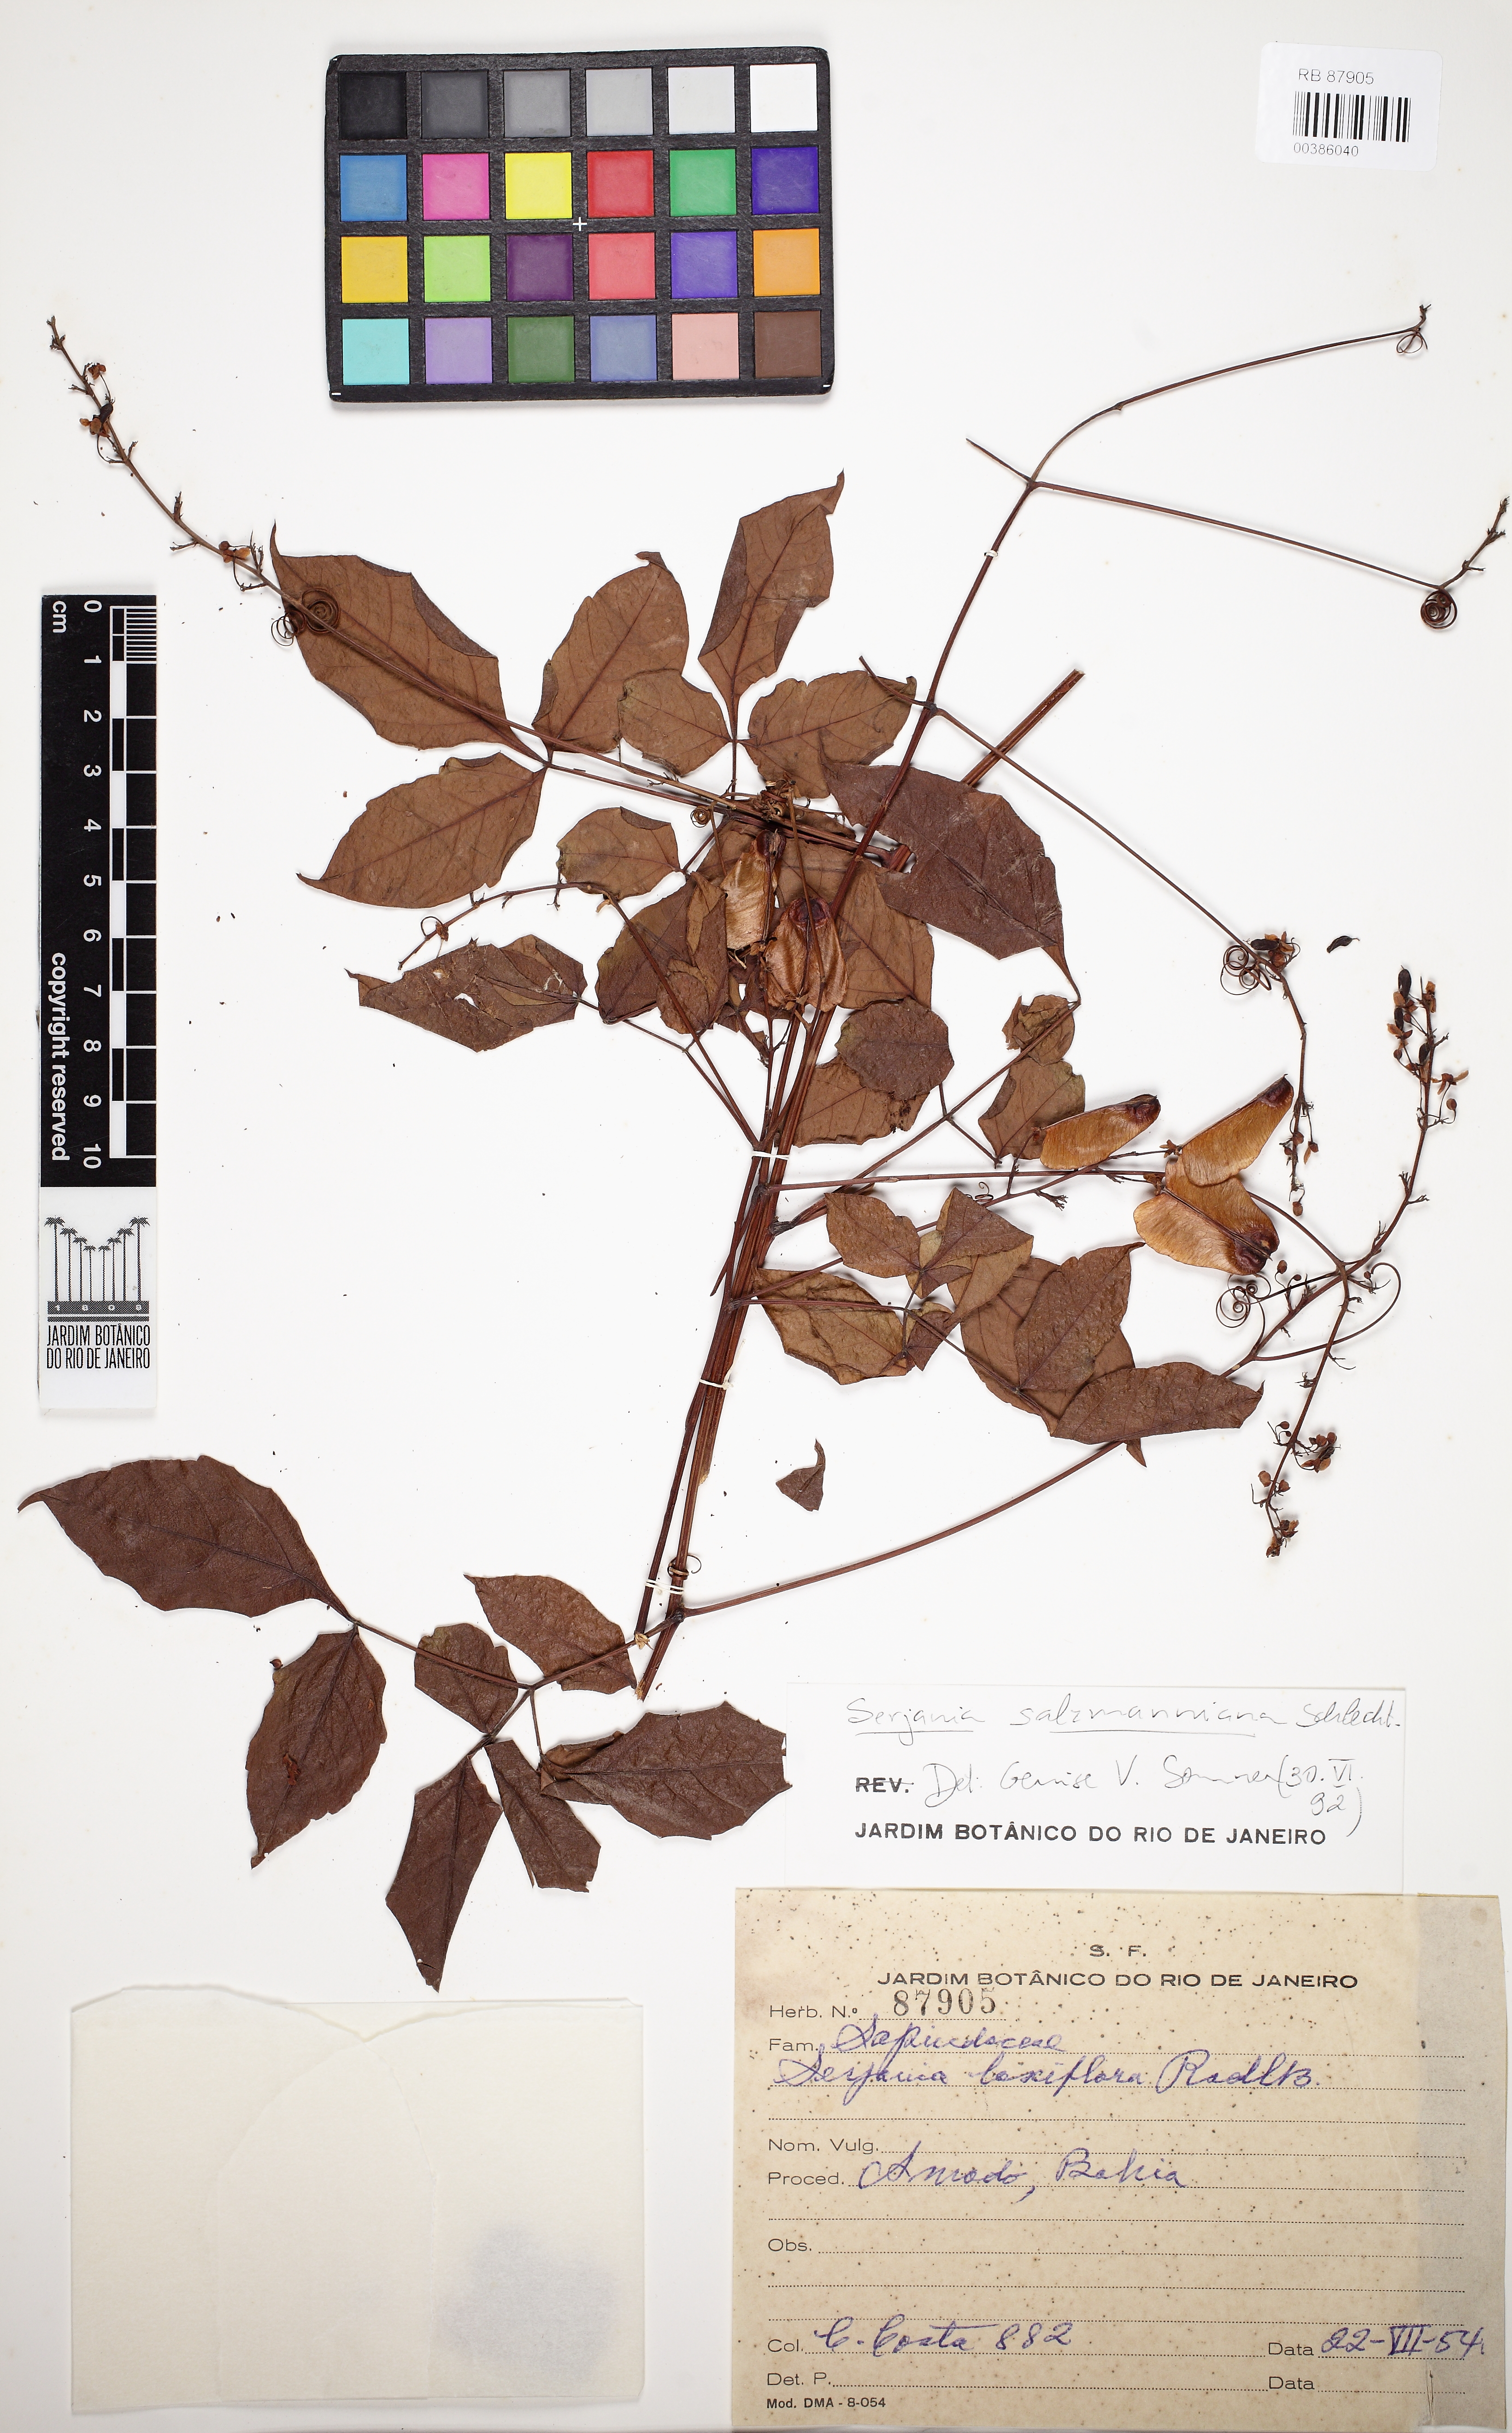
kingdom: Plantae
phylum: Tracheophyta
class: Magnoliopsida
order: Sapindales
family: Sapindaceae
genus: Serjania
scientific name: Serjania salzmanniana
